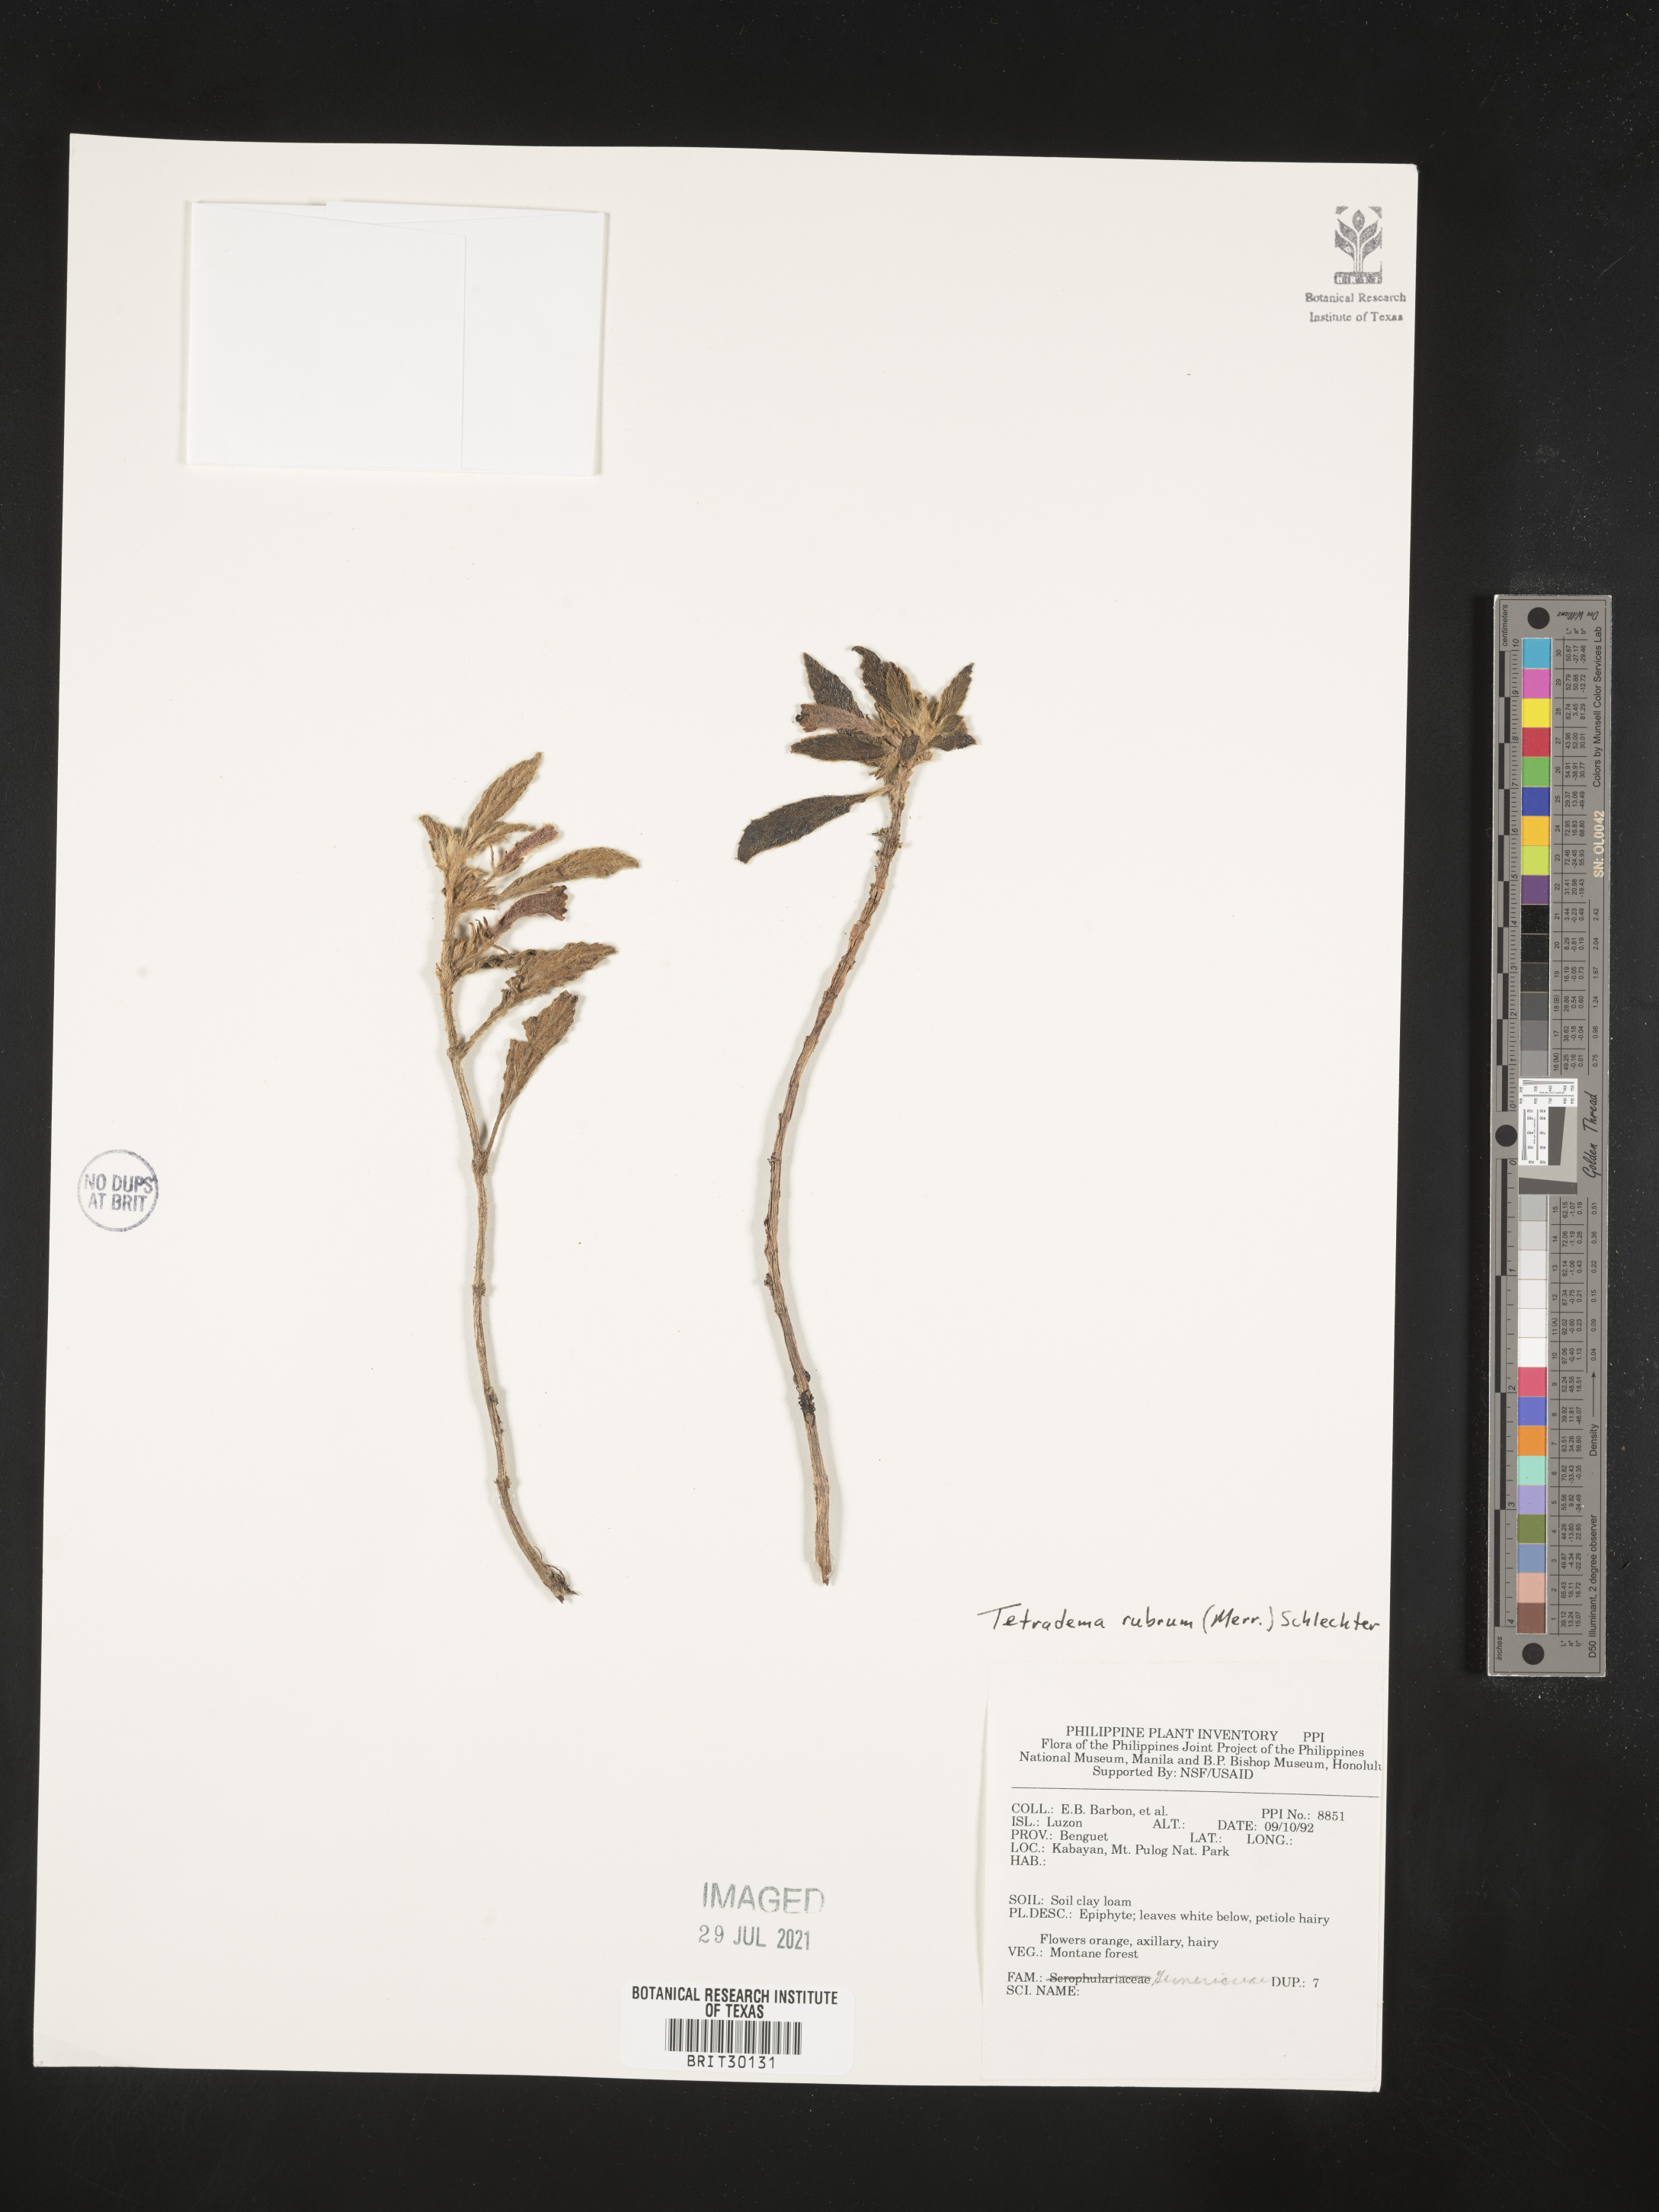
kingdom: Plantae
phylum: Tracheophyta
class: Magnoliopsida
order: Lamiales
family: Gesneriaceae
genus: Agalmyla
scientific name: Agalmyla rubra
